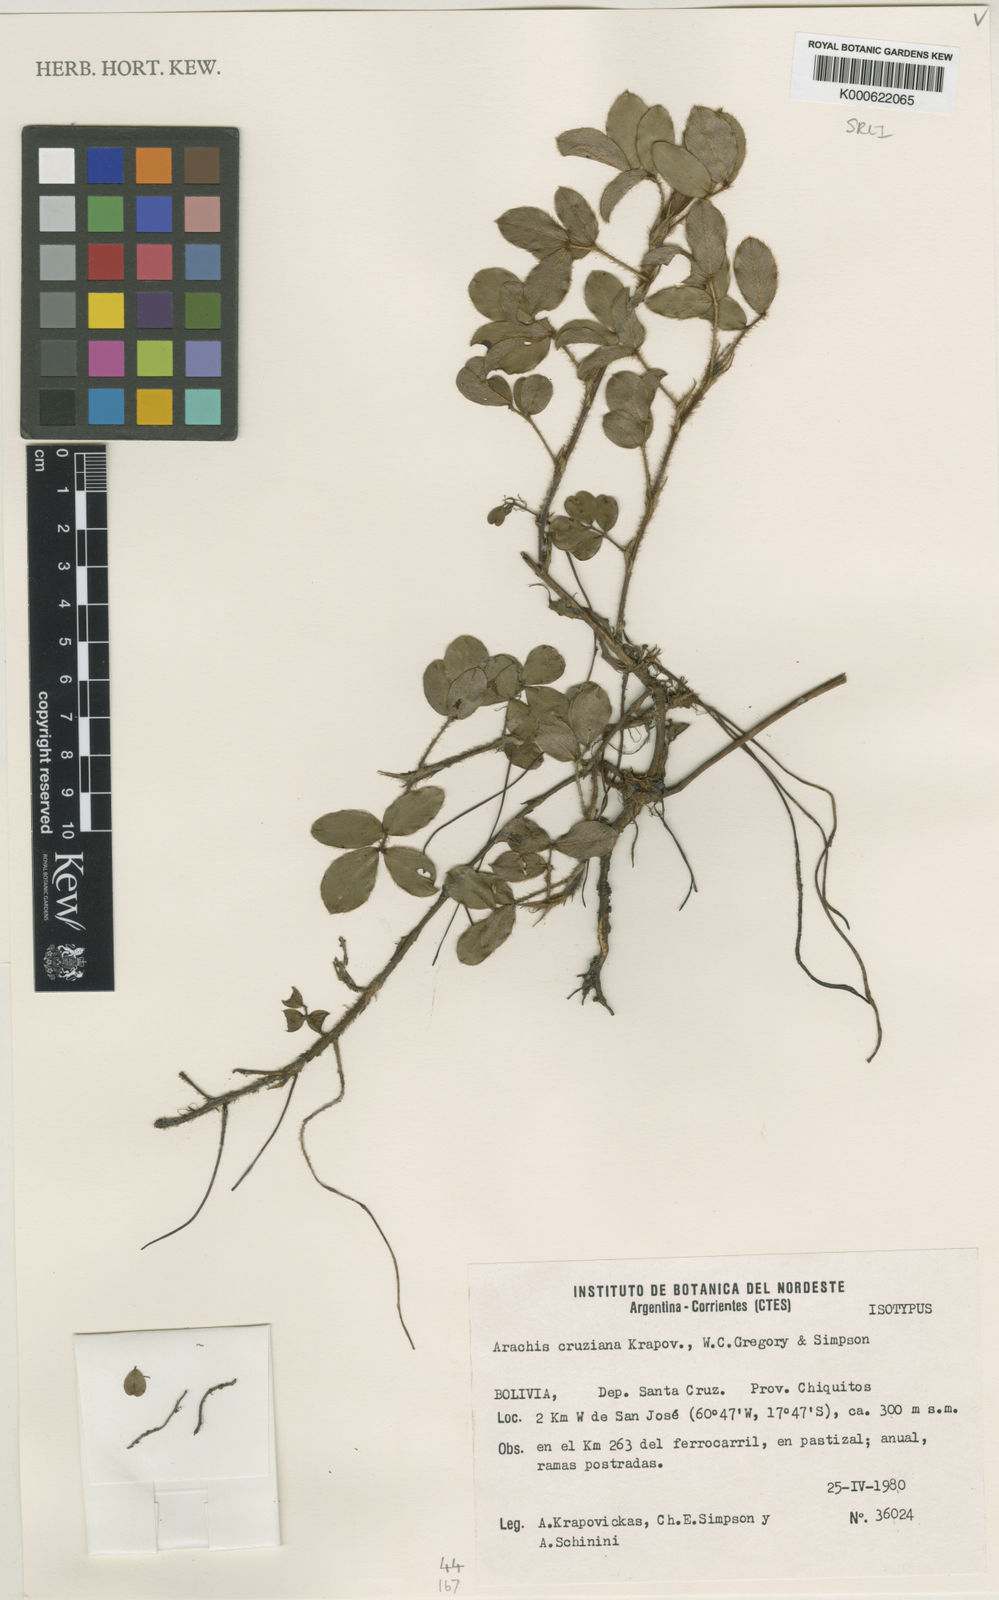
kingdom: Plantae
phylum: Tracheophyta
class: Magnoliopsida
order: Fabales
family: Fabaceae
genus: Arachis
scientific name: Arachis cruziana
